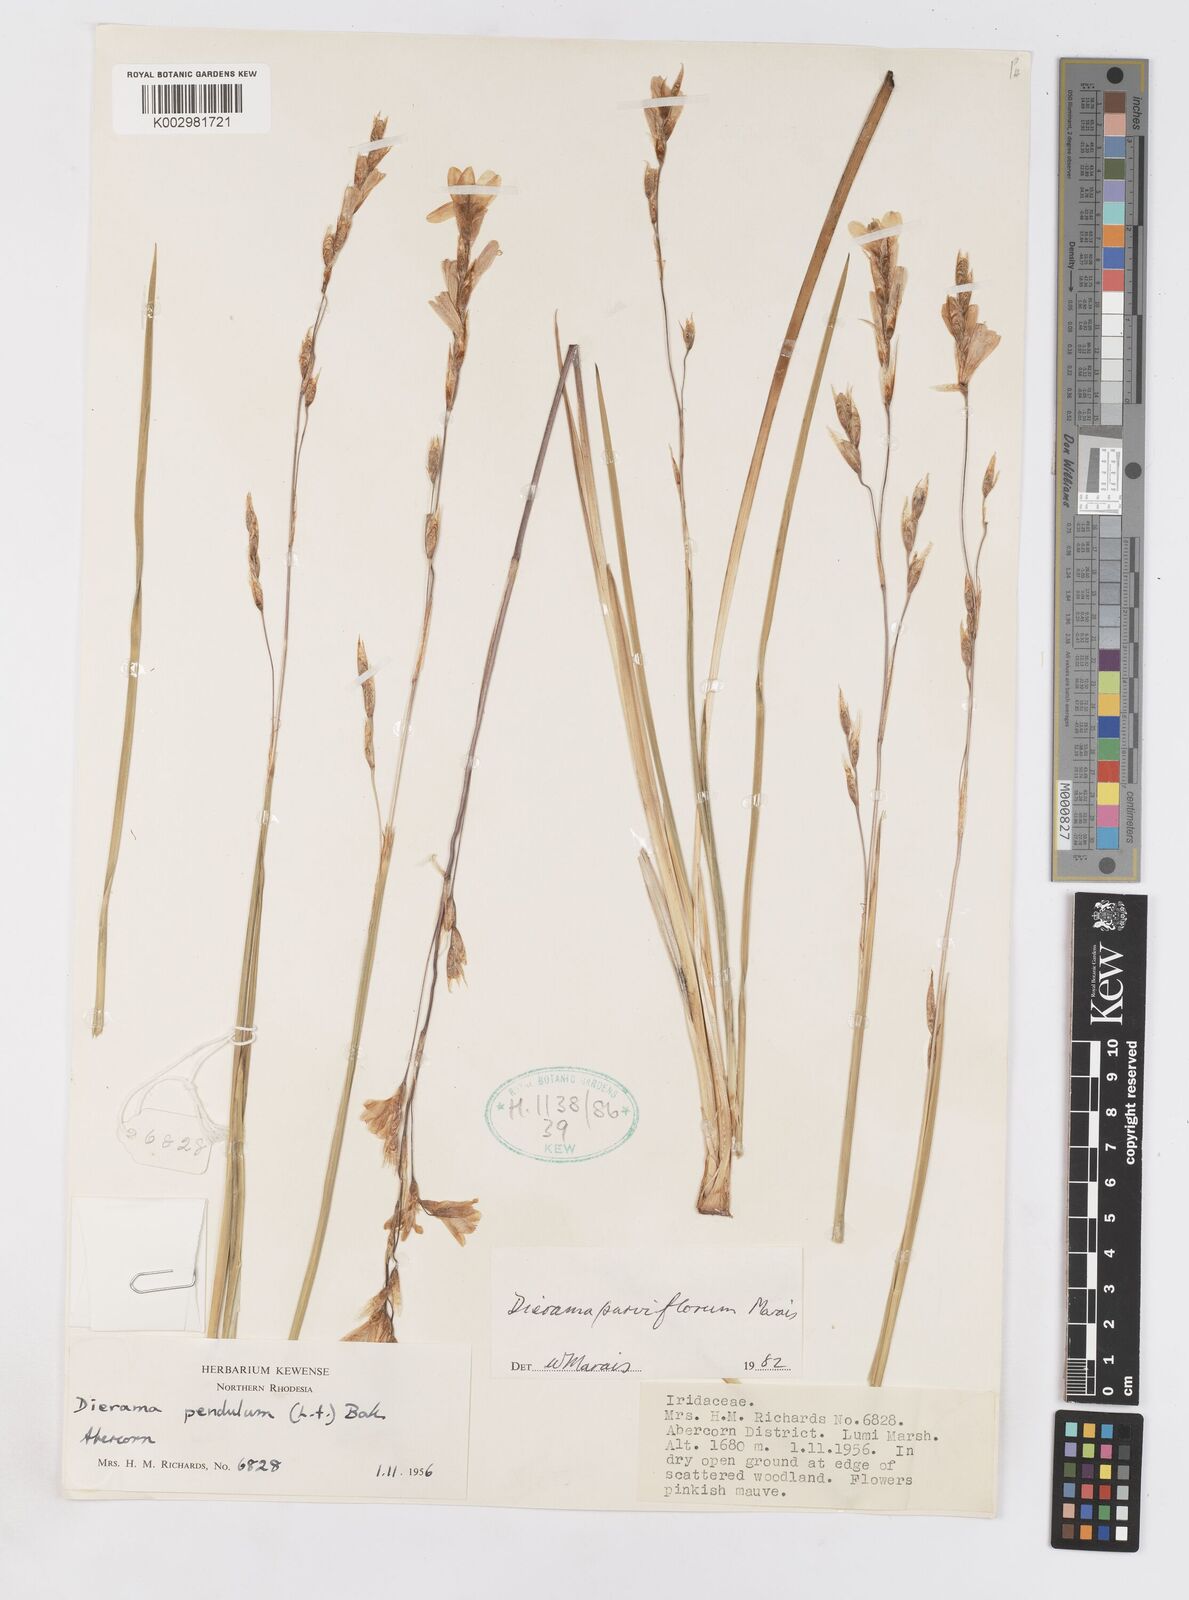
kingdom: Plantae
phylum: Tracheophyta
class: Liliopsida
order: Asparagales
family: Iridaceae
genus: Dierama
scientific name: Dierama parviflorum
